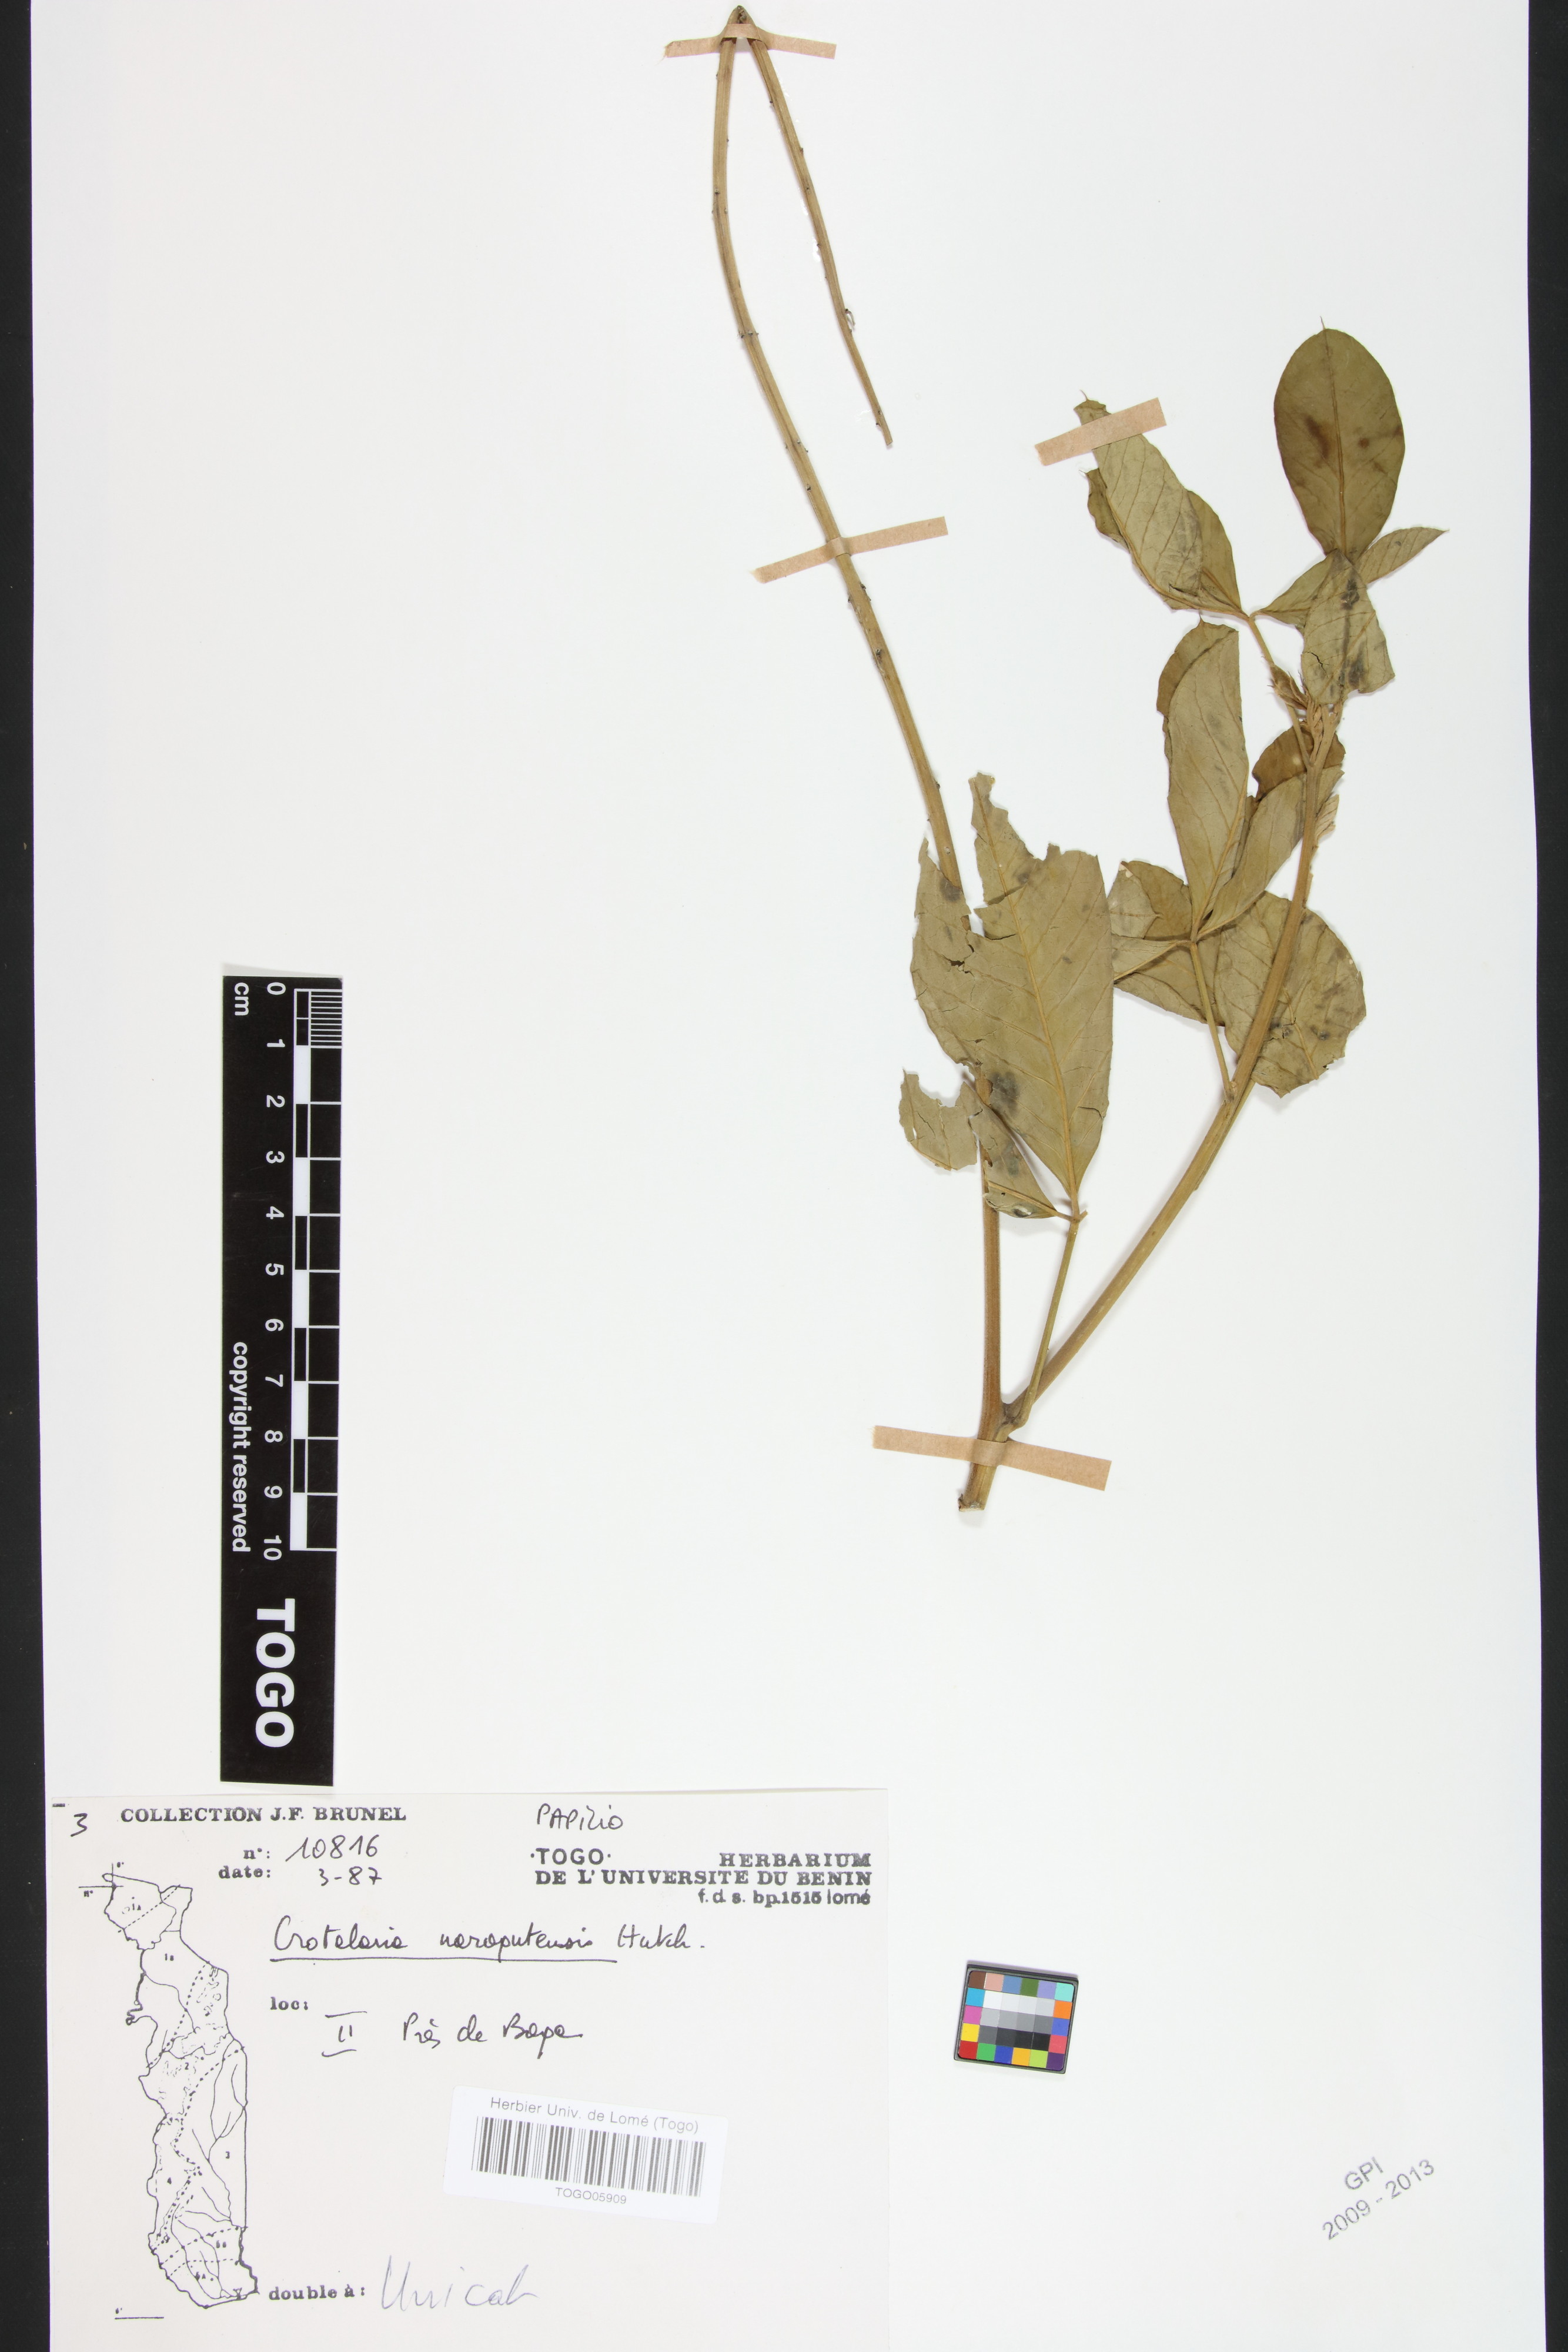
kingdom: Plantae
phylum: Tracheophyta
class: Magnoliopsida
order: Fabales
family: Fabaceae
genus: Crotalaria
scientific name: Crotalaria naragutensis
